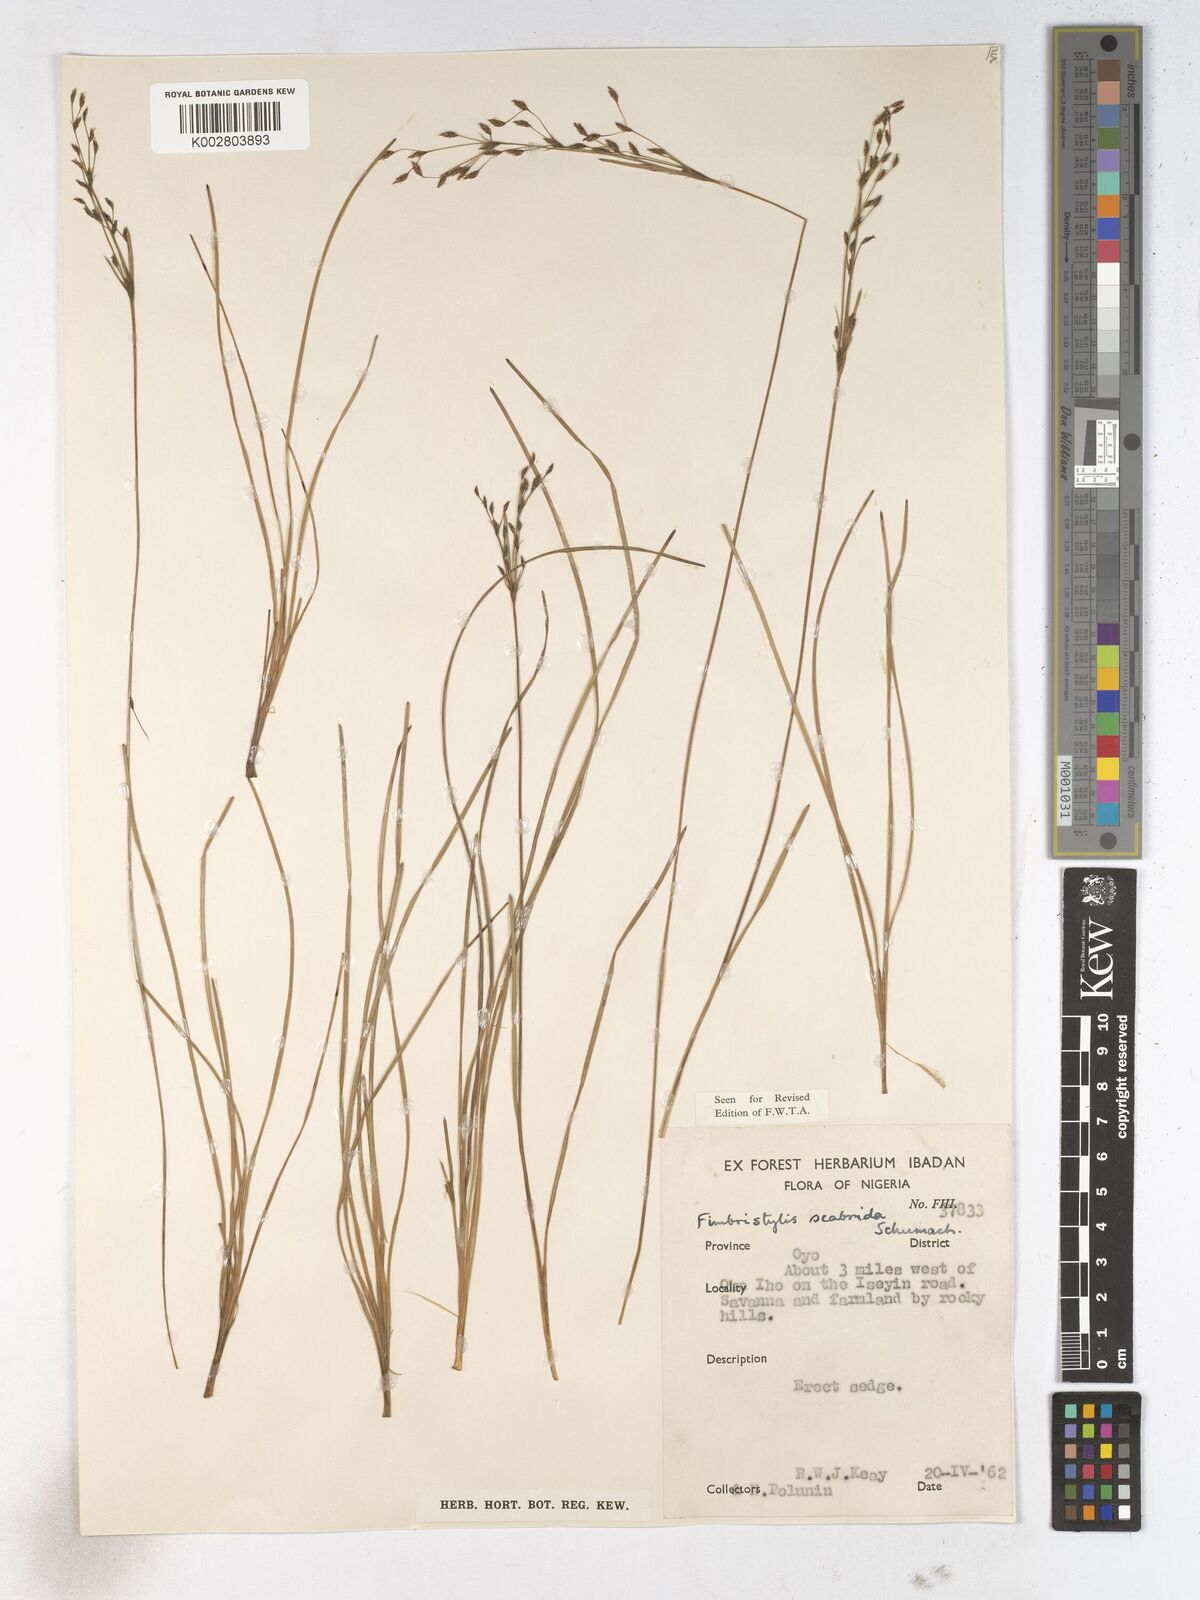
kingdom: Plantae
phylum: Tracheophyta
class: Liliopsida
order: Poales
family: Cyperaceae
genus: Fimbristylis
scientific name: Fimbristylis scabrida
